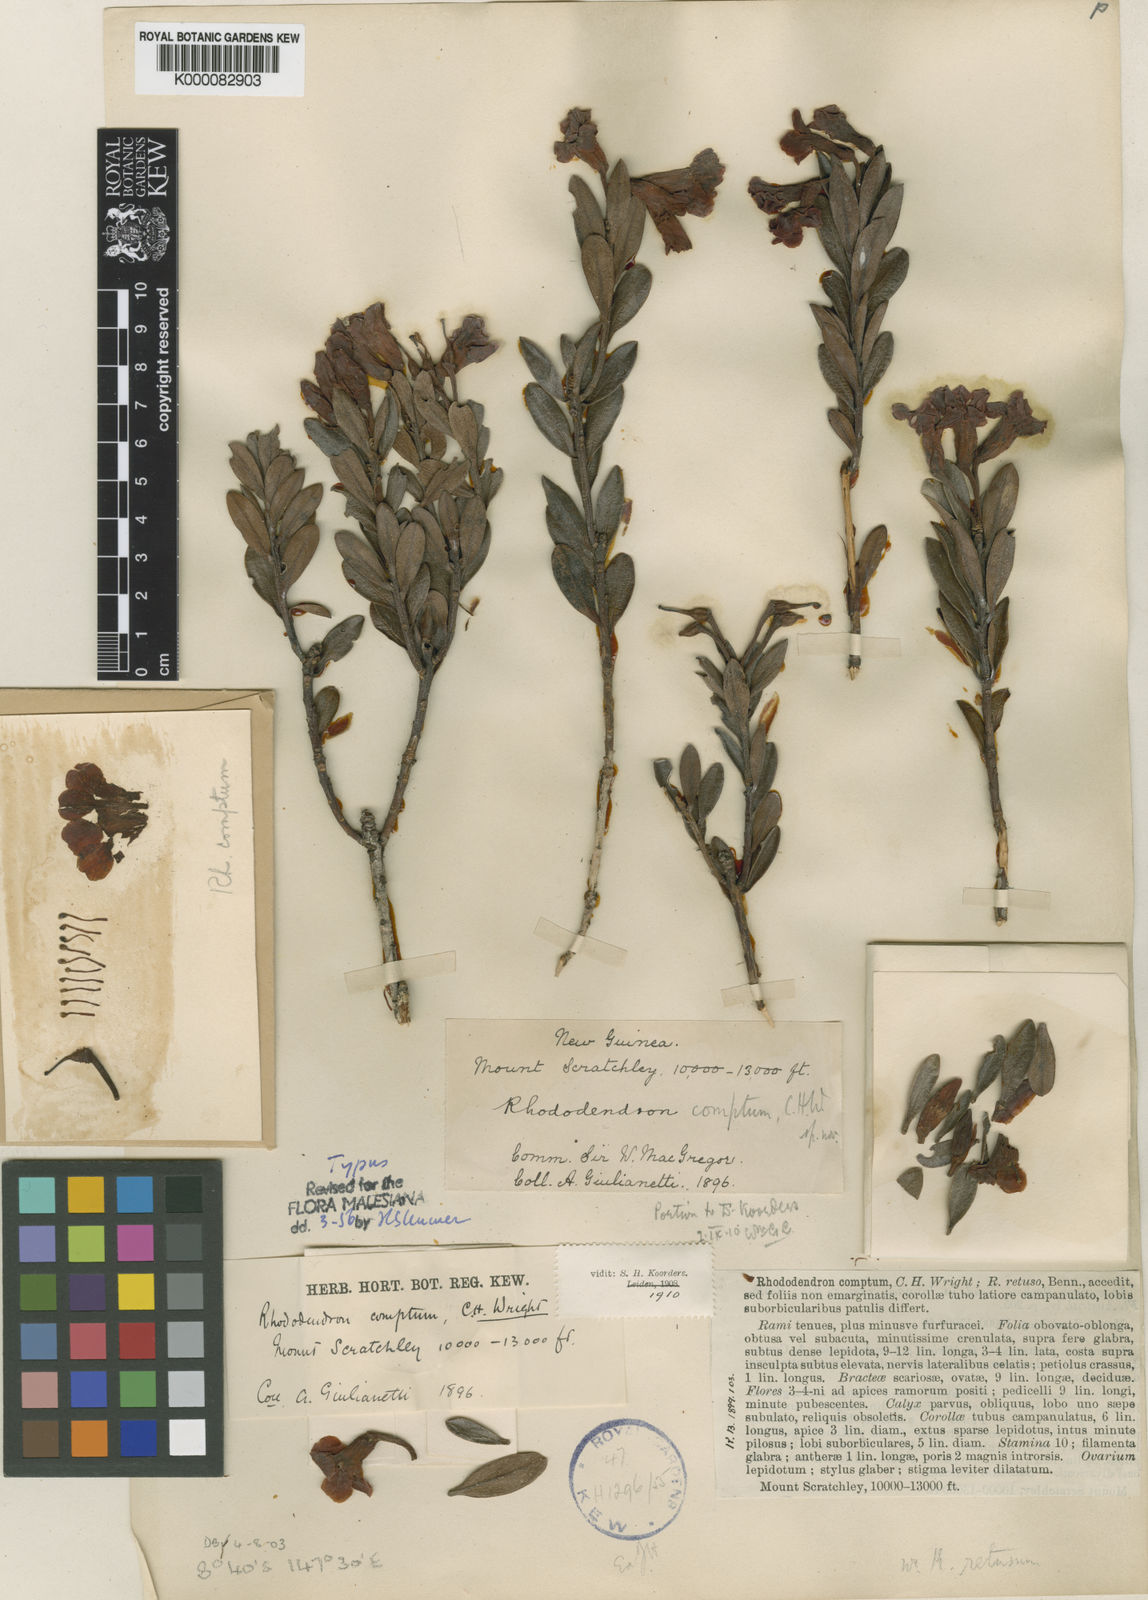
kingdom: Plantae
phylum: Tracheophyta
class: Magnoliopsida
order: Ericales
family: Ericaceae
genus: Rhododendron
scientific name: Rhododendron comptum
